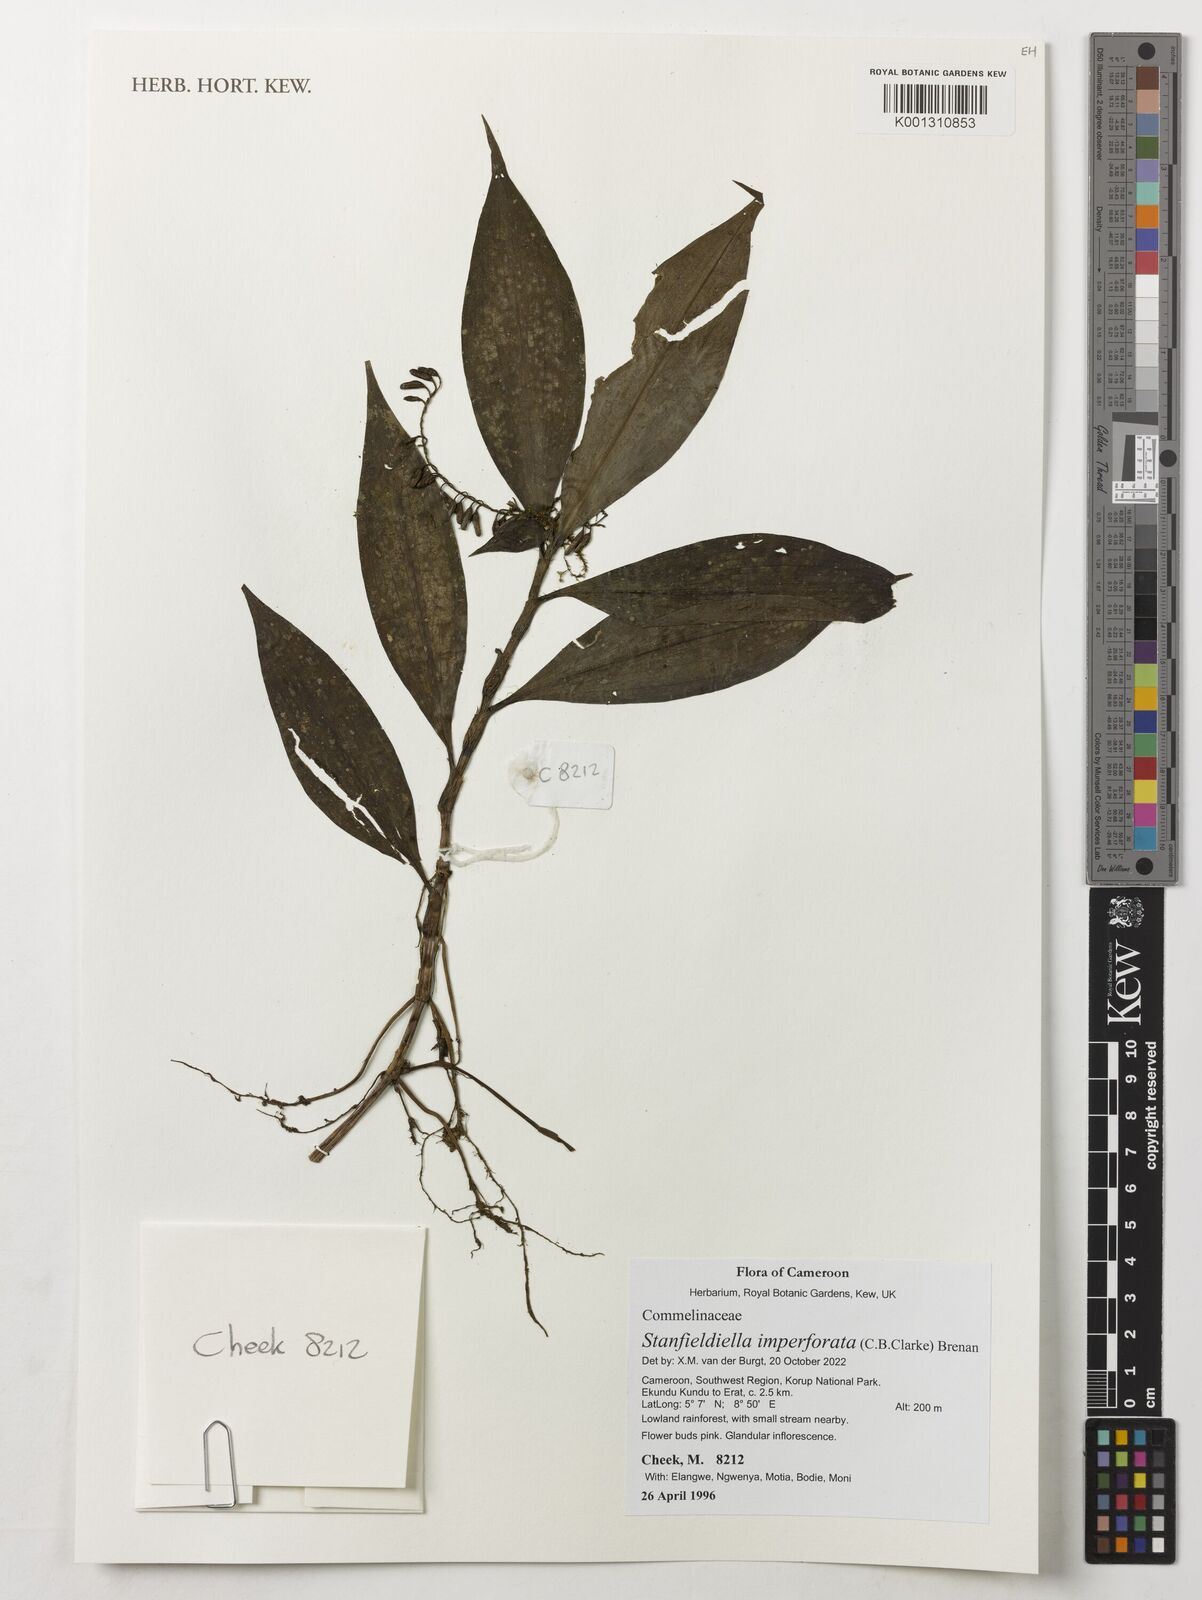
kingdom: Plantae
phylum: Tracheophyta
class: Liliopsida
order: Commelinales
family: Commelinaceae
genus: Stanfieldiella
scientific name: Stanfieldiella imperforata
